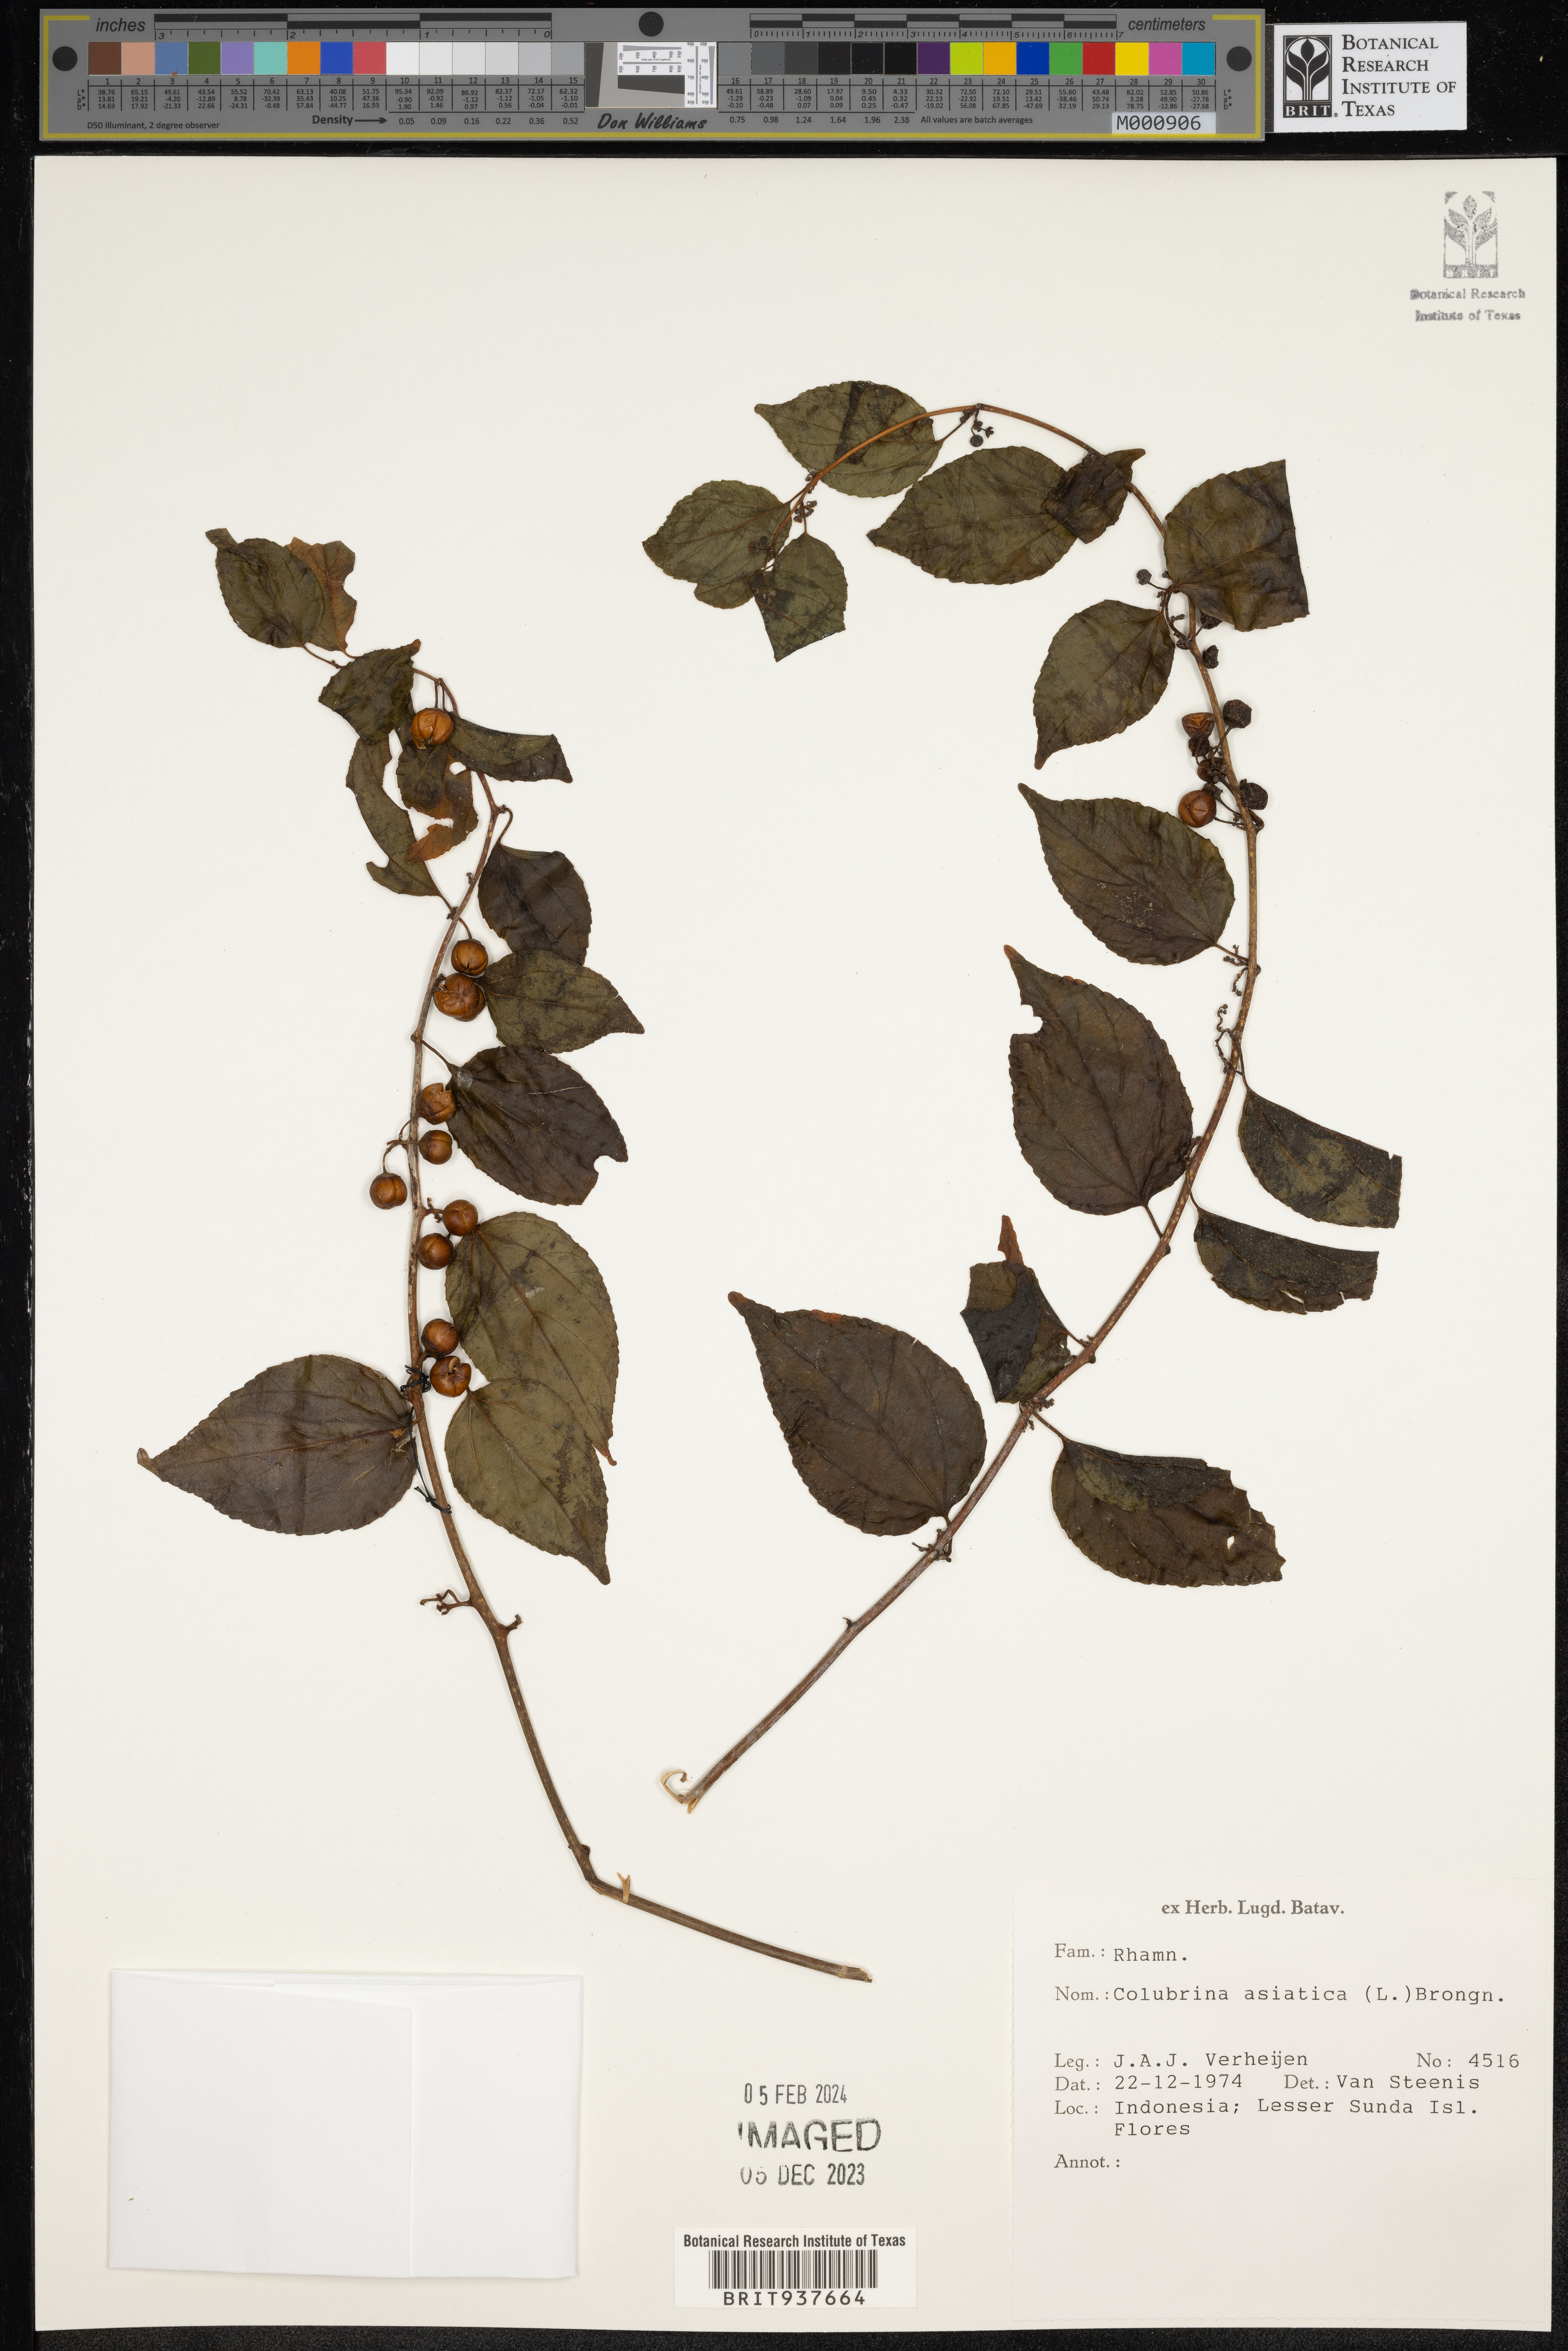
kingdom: Plantae
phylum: Tracheophyta
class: Magnoliopsida
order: Rosales
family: Rhamnaceae
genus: Colubrina
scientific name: Colubrina
